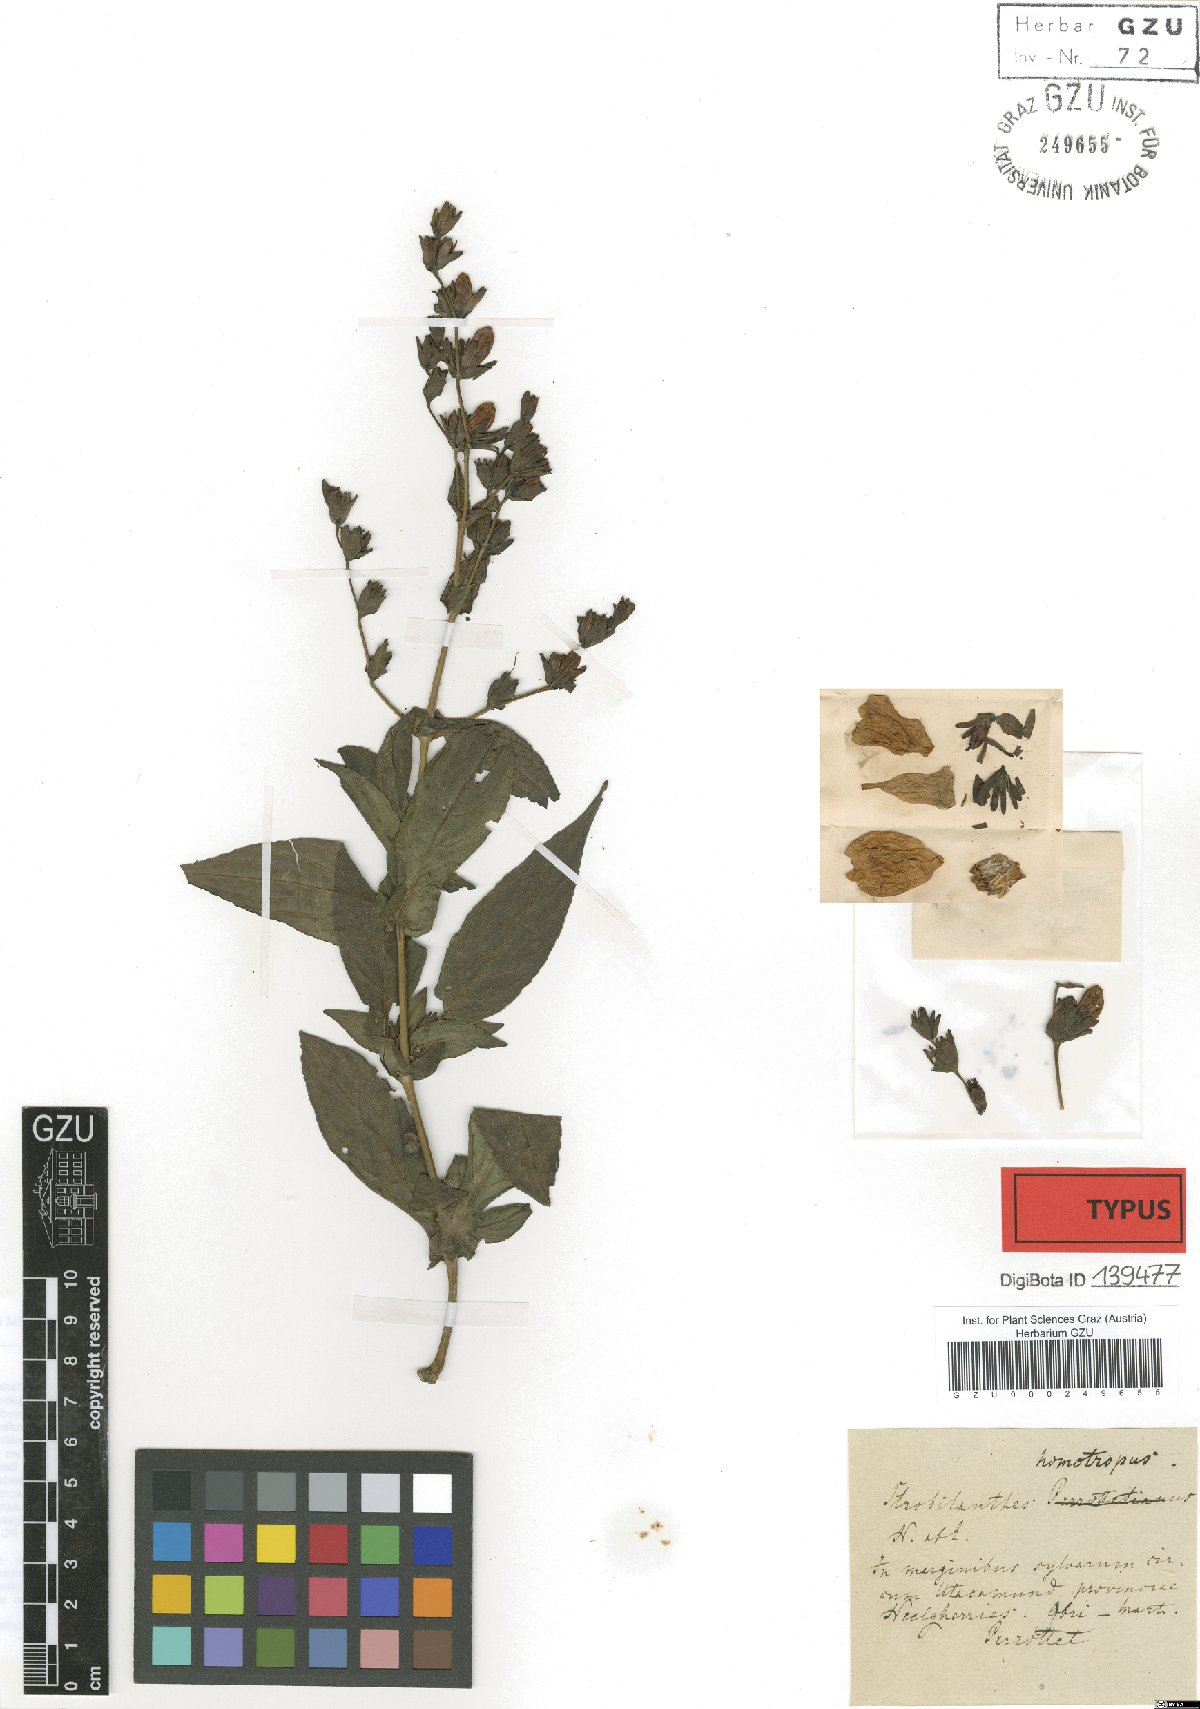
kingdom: Plantae
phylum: Tracheophyta
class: Magnoliopsida
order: Lamiales
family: Acanthaceae
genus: Strobilanthes
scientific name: Strobilanthes homotropa
